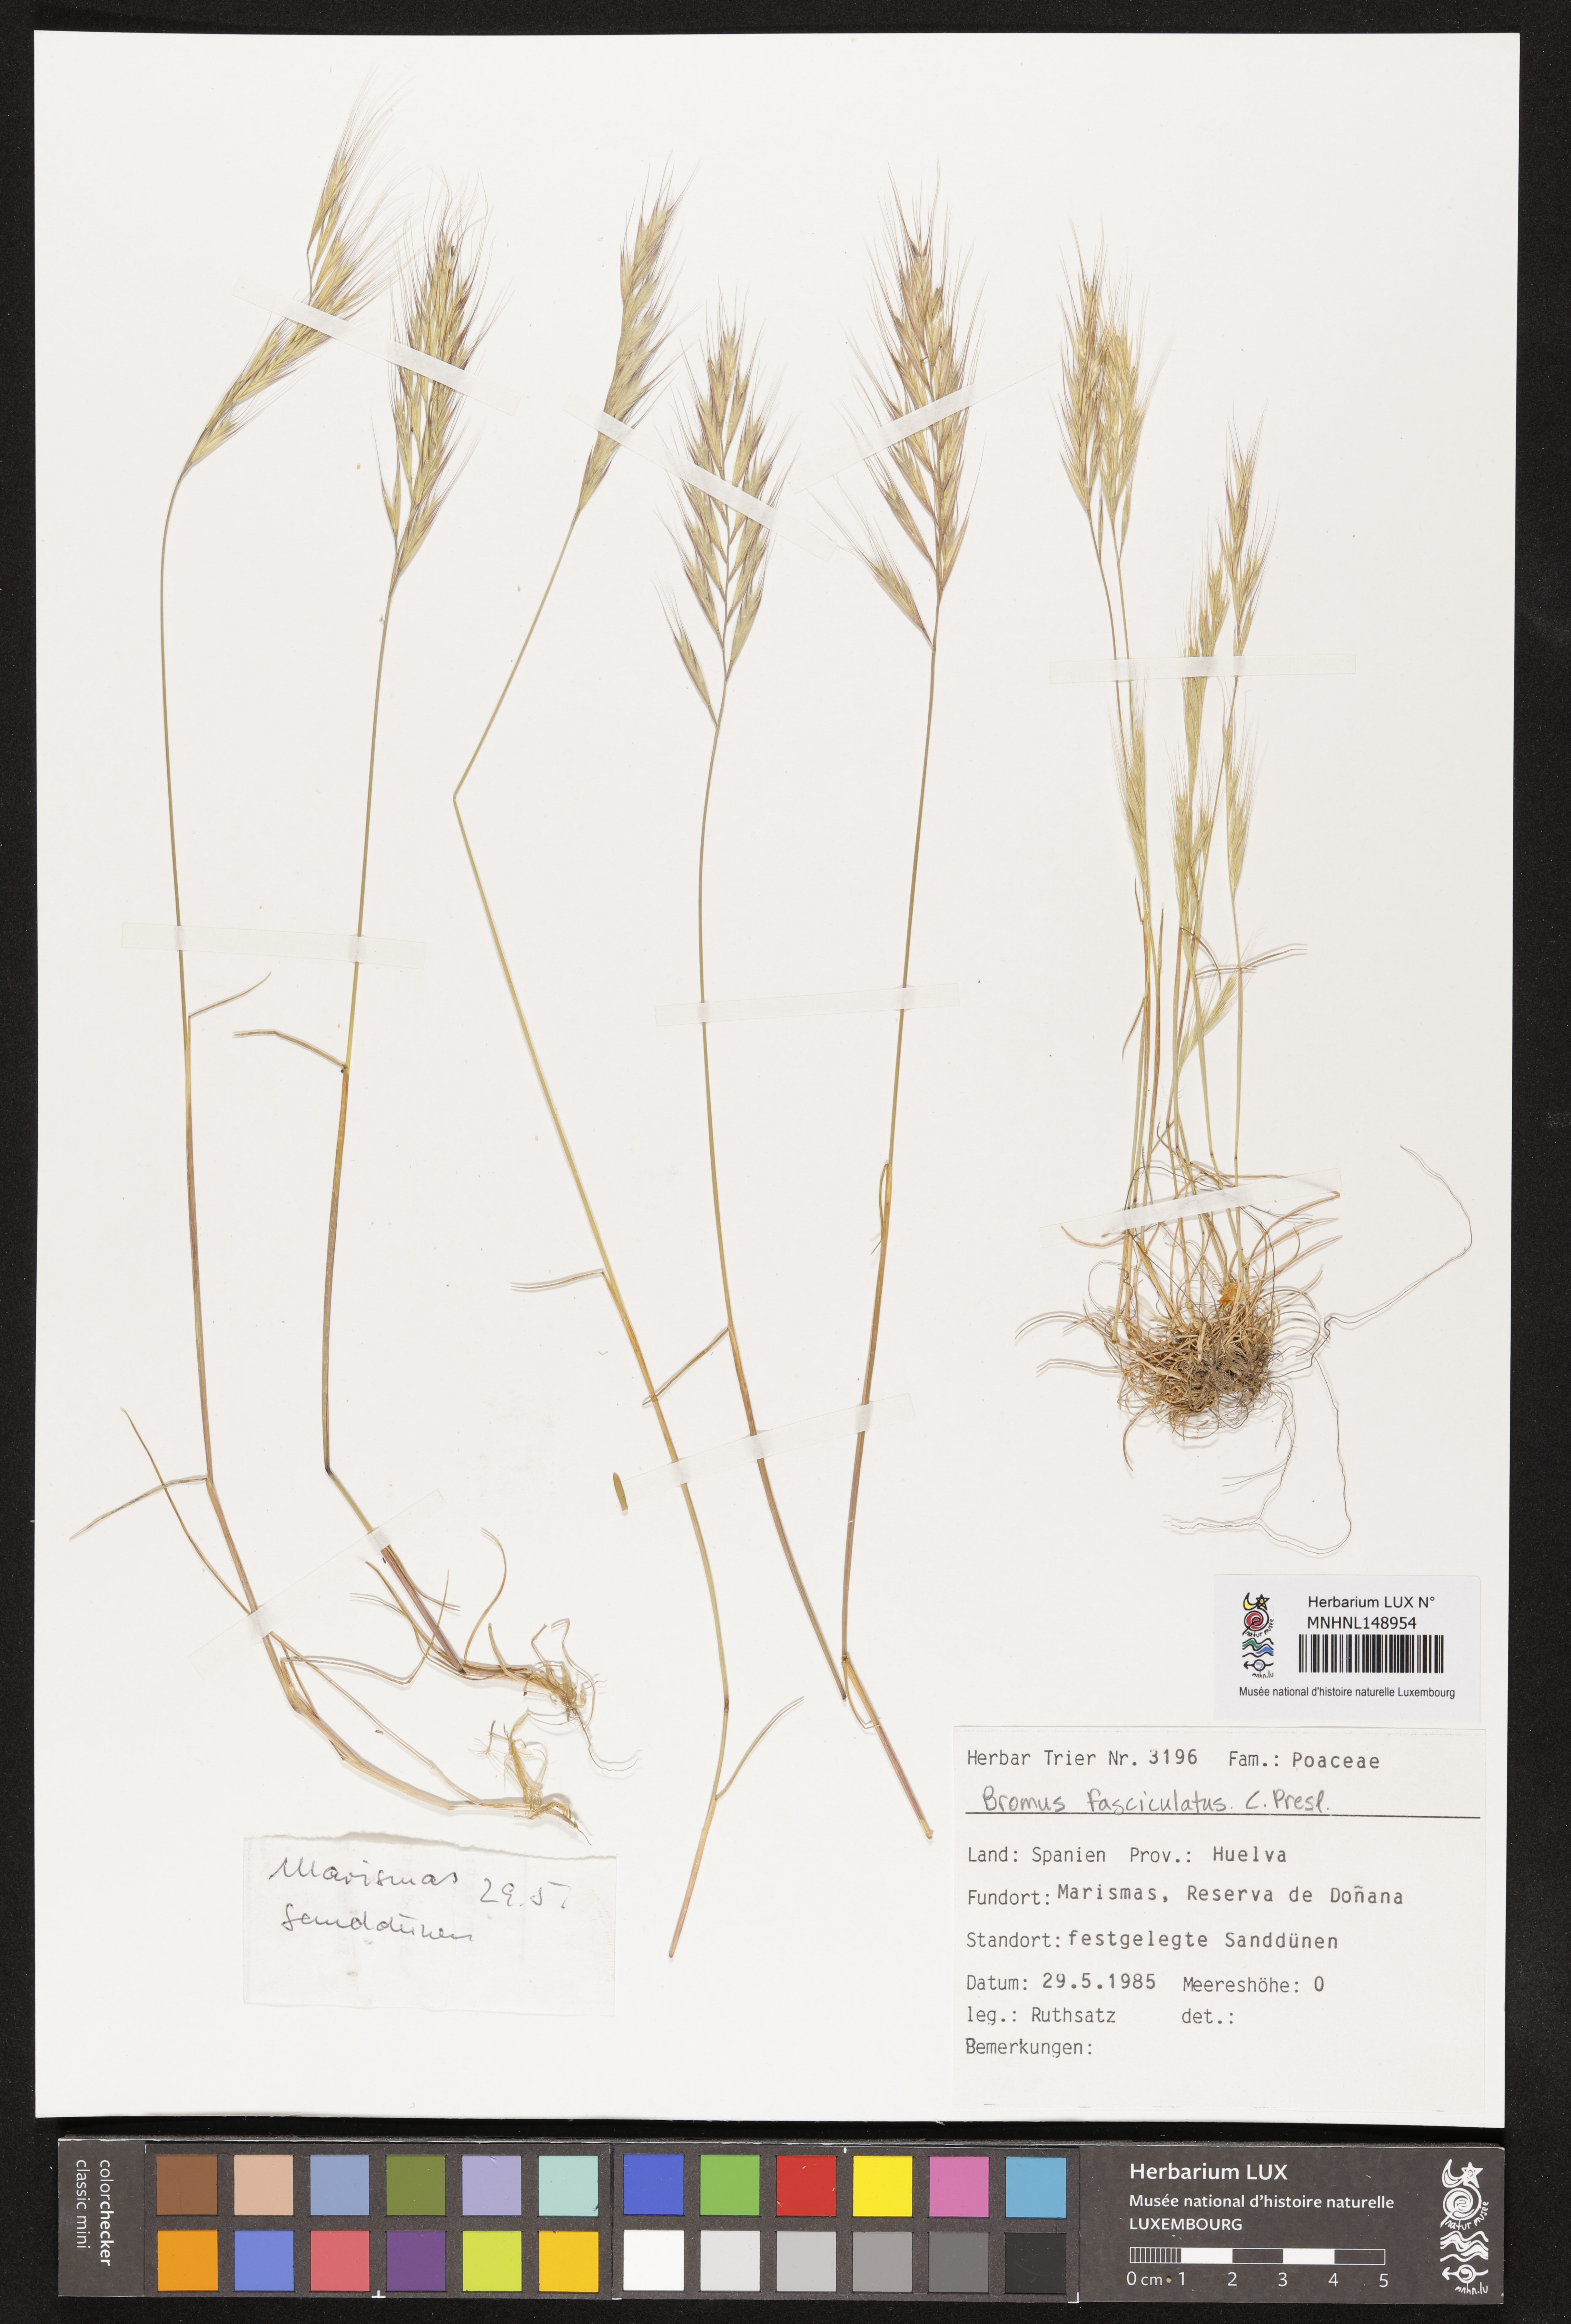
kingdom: Plantae
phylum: Tracheophyta
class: Liliopsida
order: Poales
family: Poaceae
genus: Bromus
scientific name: Bromus fasciculatus
